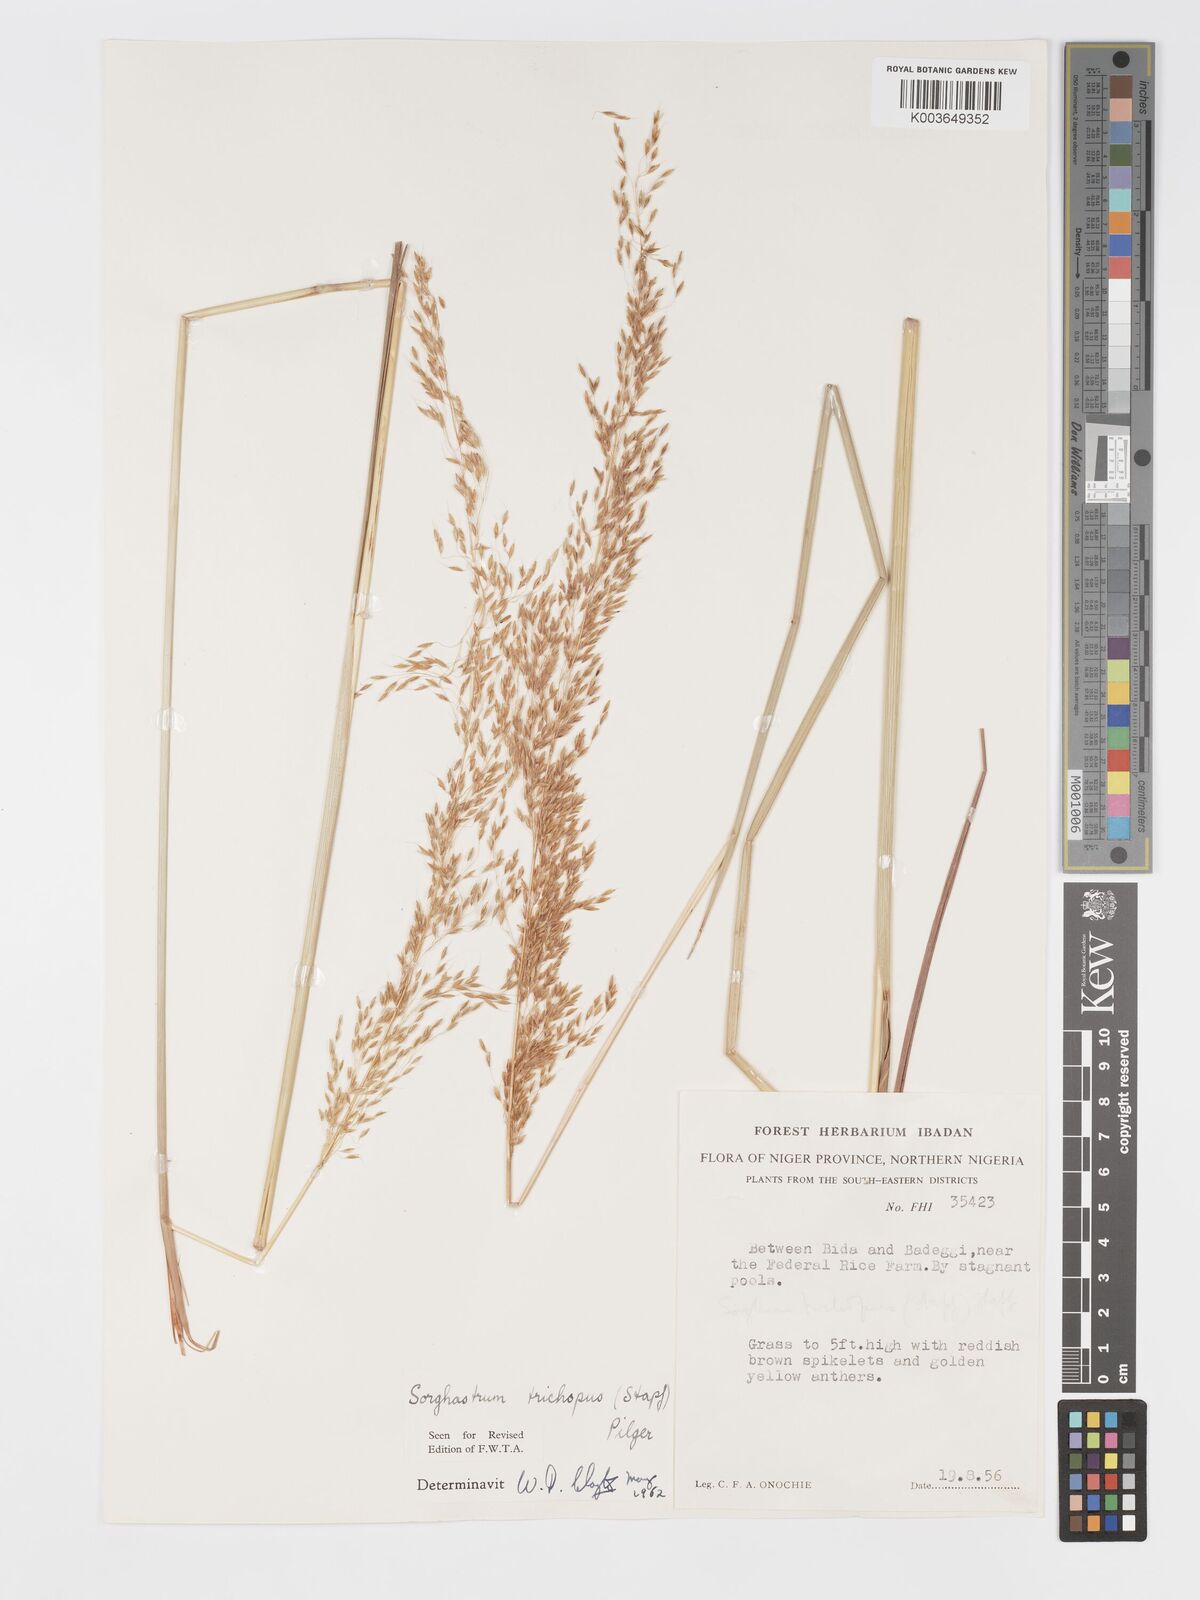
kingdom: Plantae
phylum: Tracheophyta
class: Liliopsida
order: Poales
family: Poaceae
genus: Sorghastrum
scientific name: Sorghastrum stipoides
